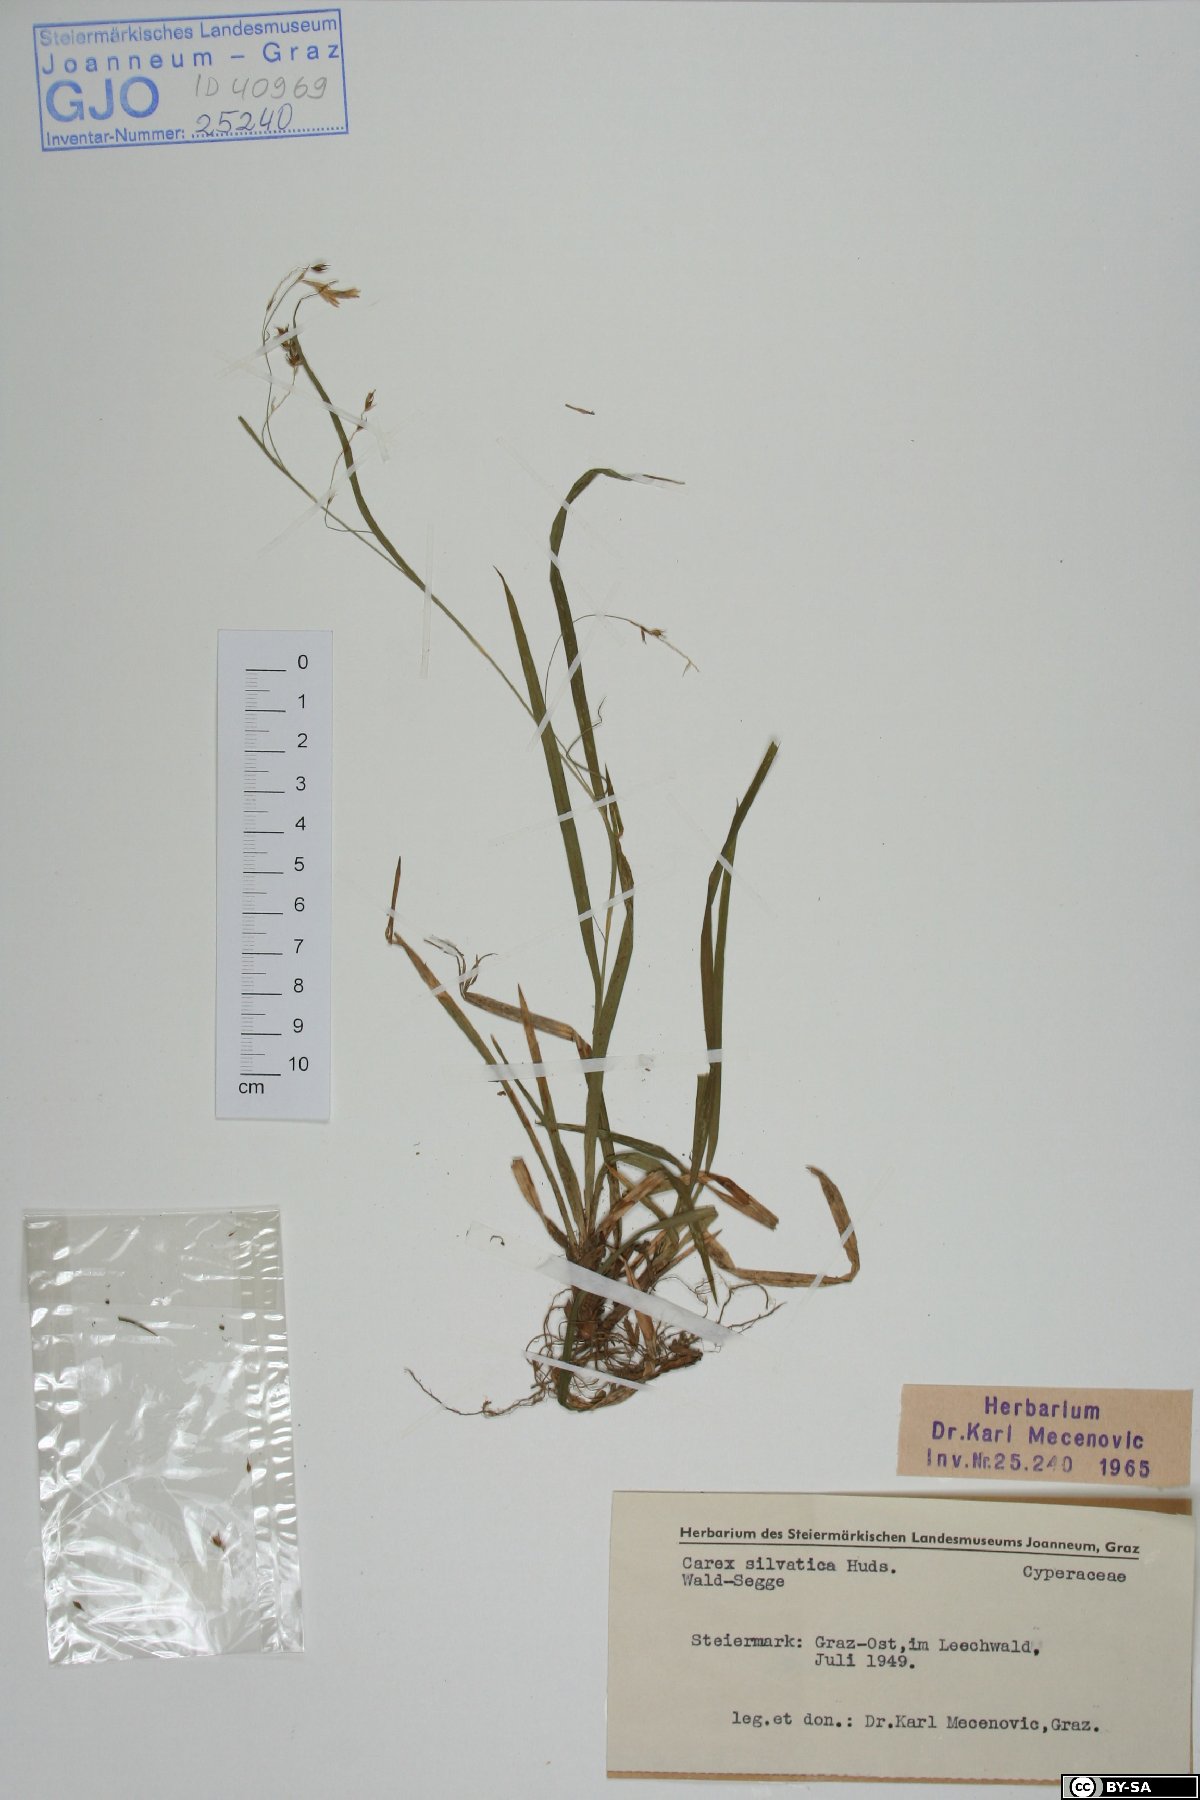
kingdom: Plantae
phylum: Tracheophyta
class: Liliopsida
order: Poales
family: Cyperaceae
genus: Carex
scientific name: Carex sylvatica
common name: Wood-sedge
